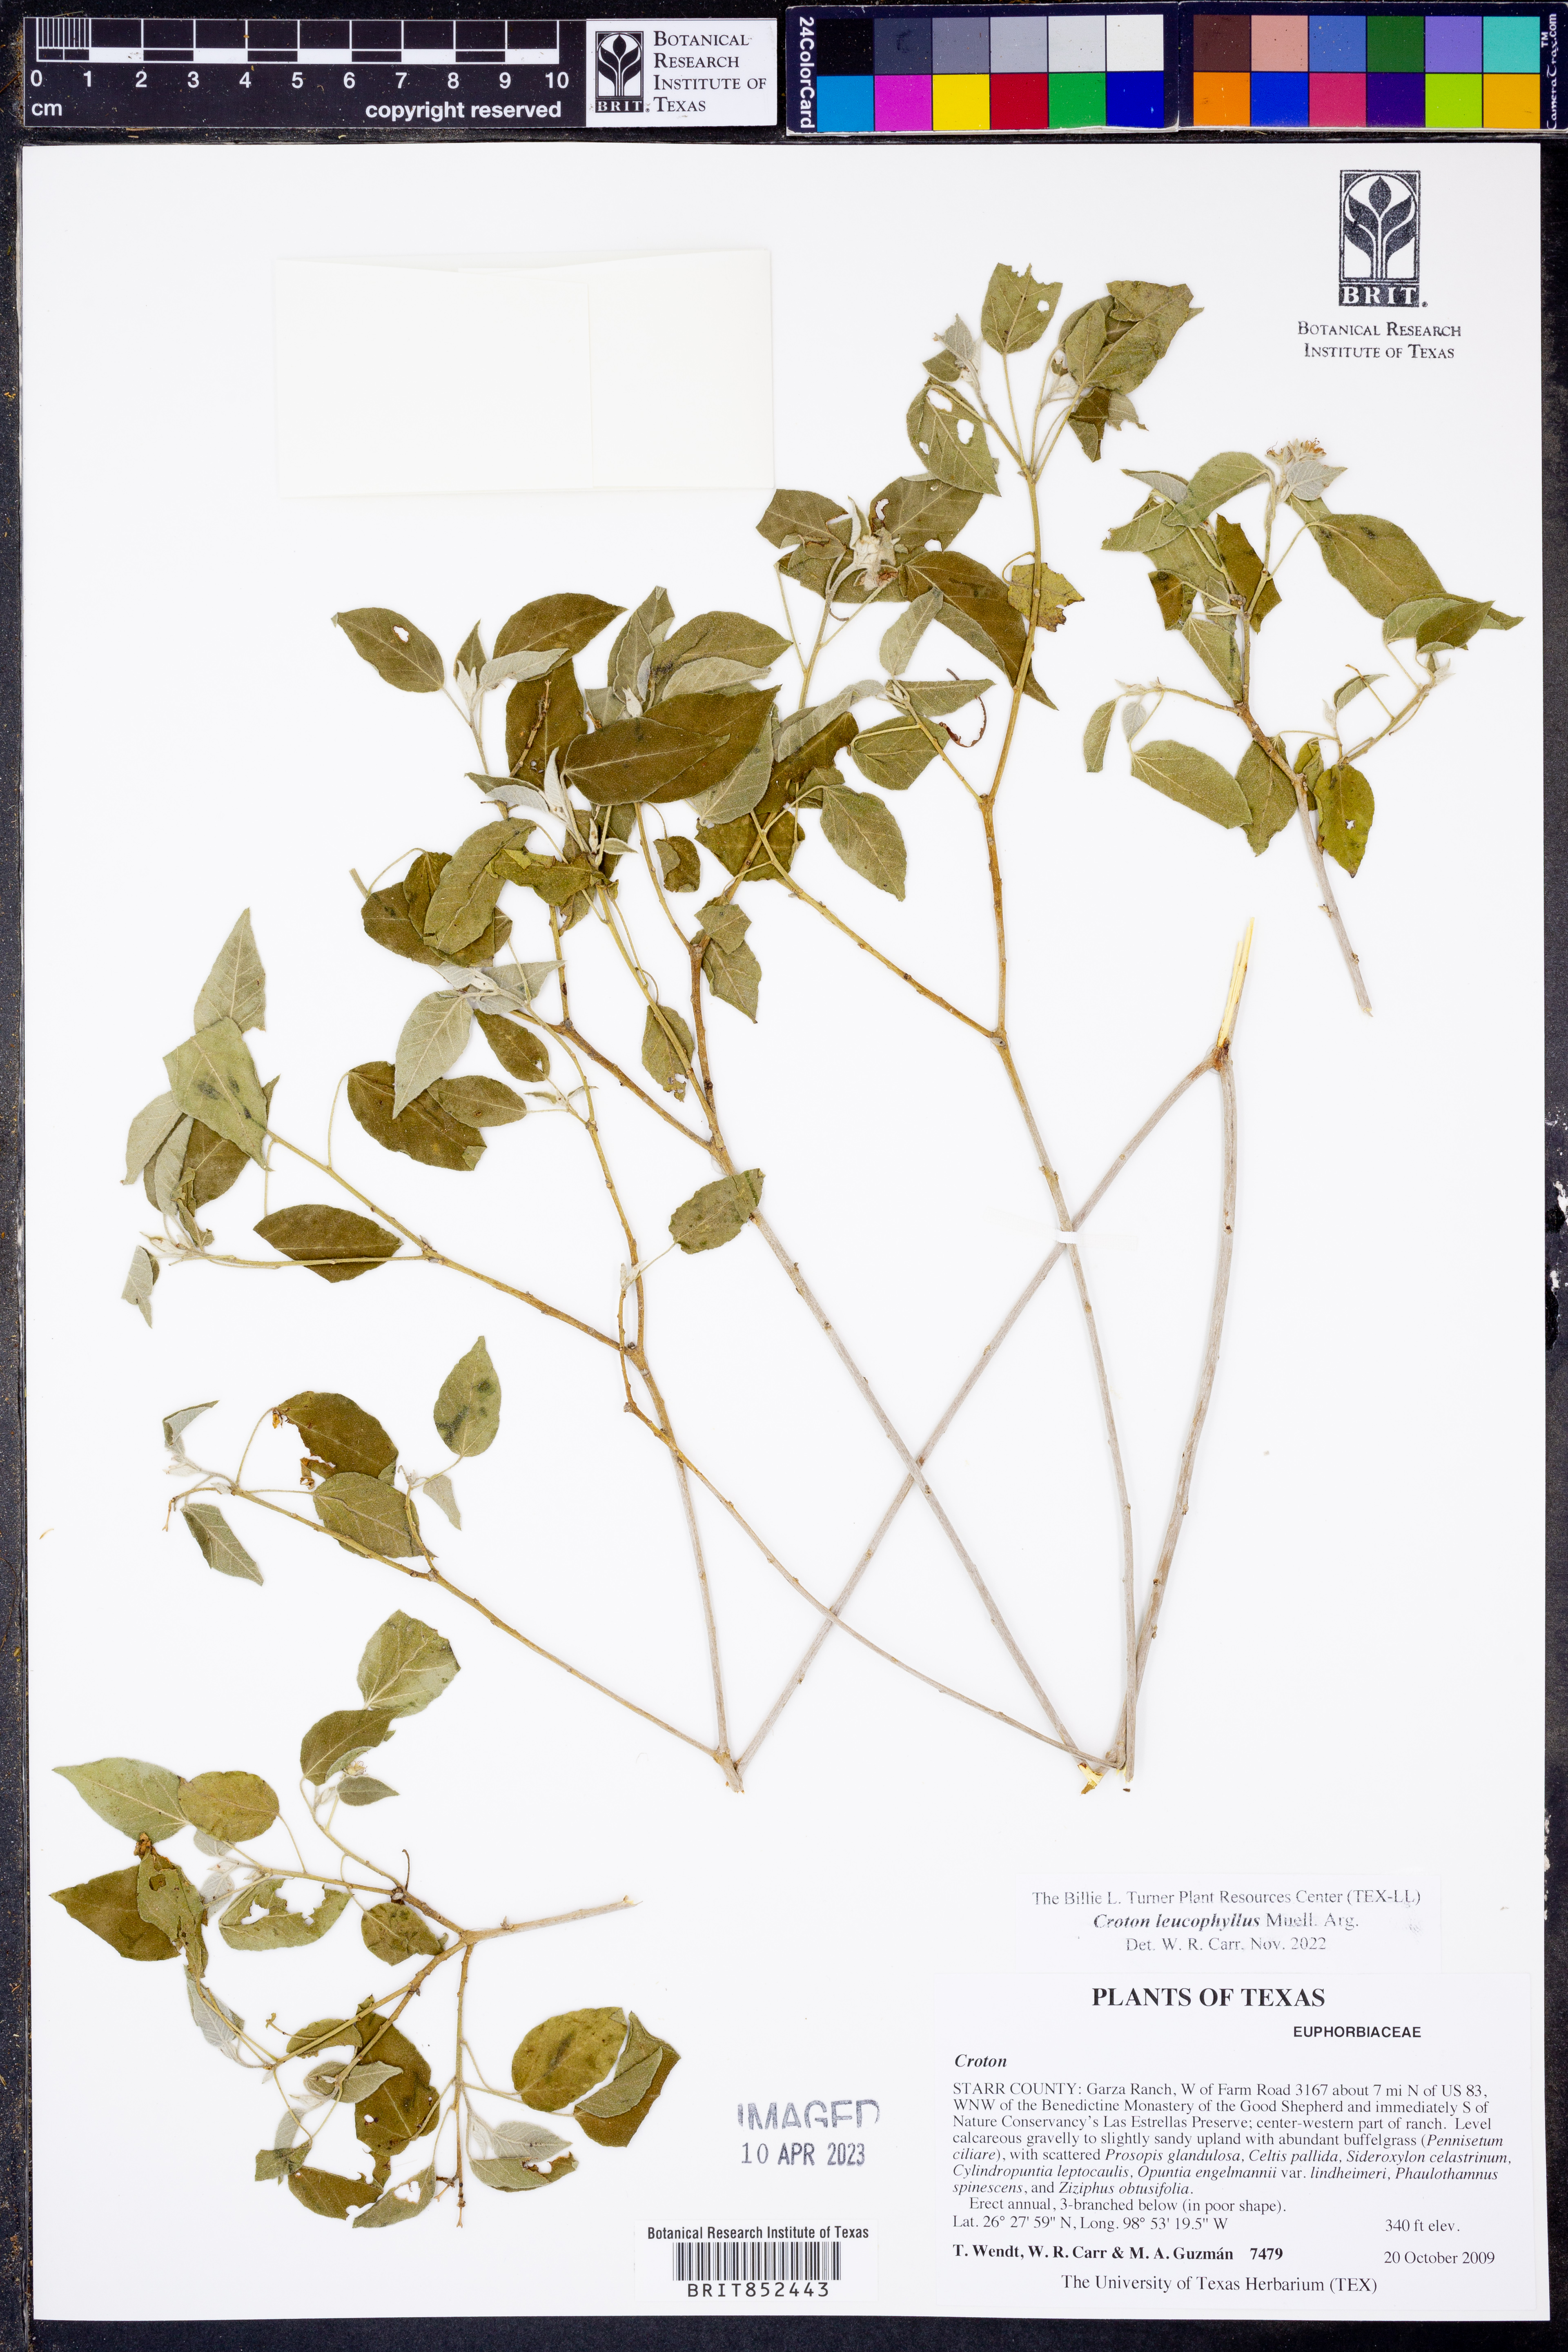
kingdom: Plantae
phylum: Tracheophyta
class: Magnoliopsida
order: Malpighiales
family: Euphorbiaceae
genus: Croton
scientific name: Croton leucophyllus
